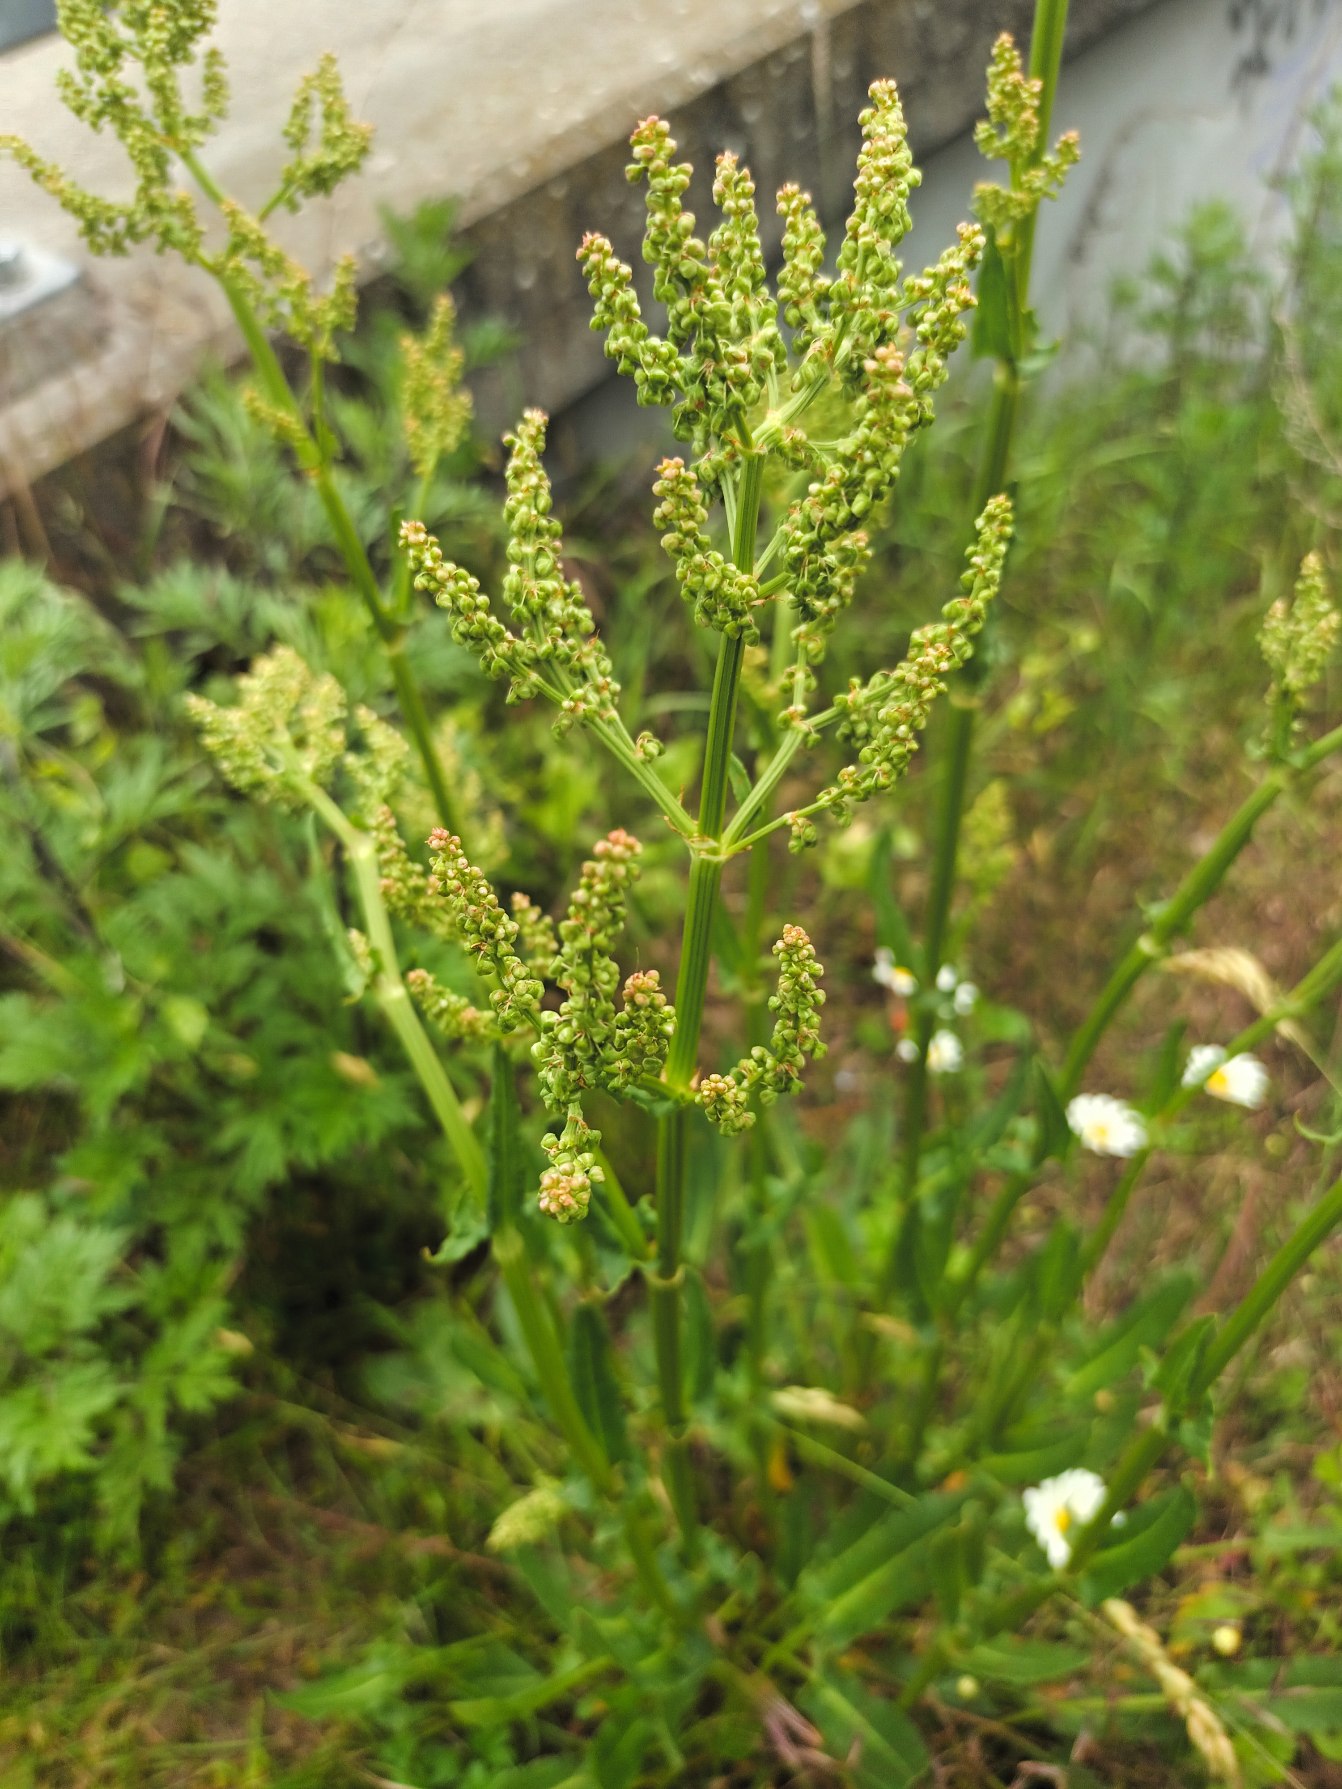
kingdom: Plantae
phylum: Tracheophyta
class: Magnoliopsida
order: Caryophyllales
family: Polygonaceae
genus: Rumex
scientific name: Rumex thyrsiflorus
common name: Dusk-syre
